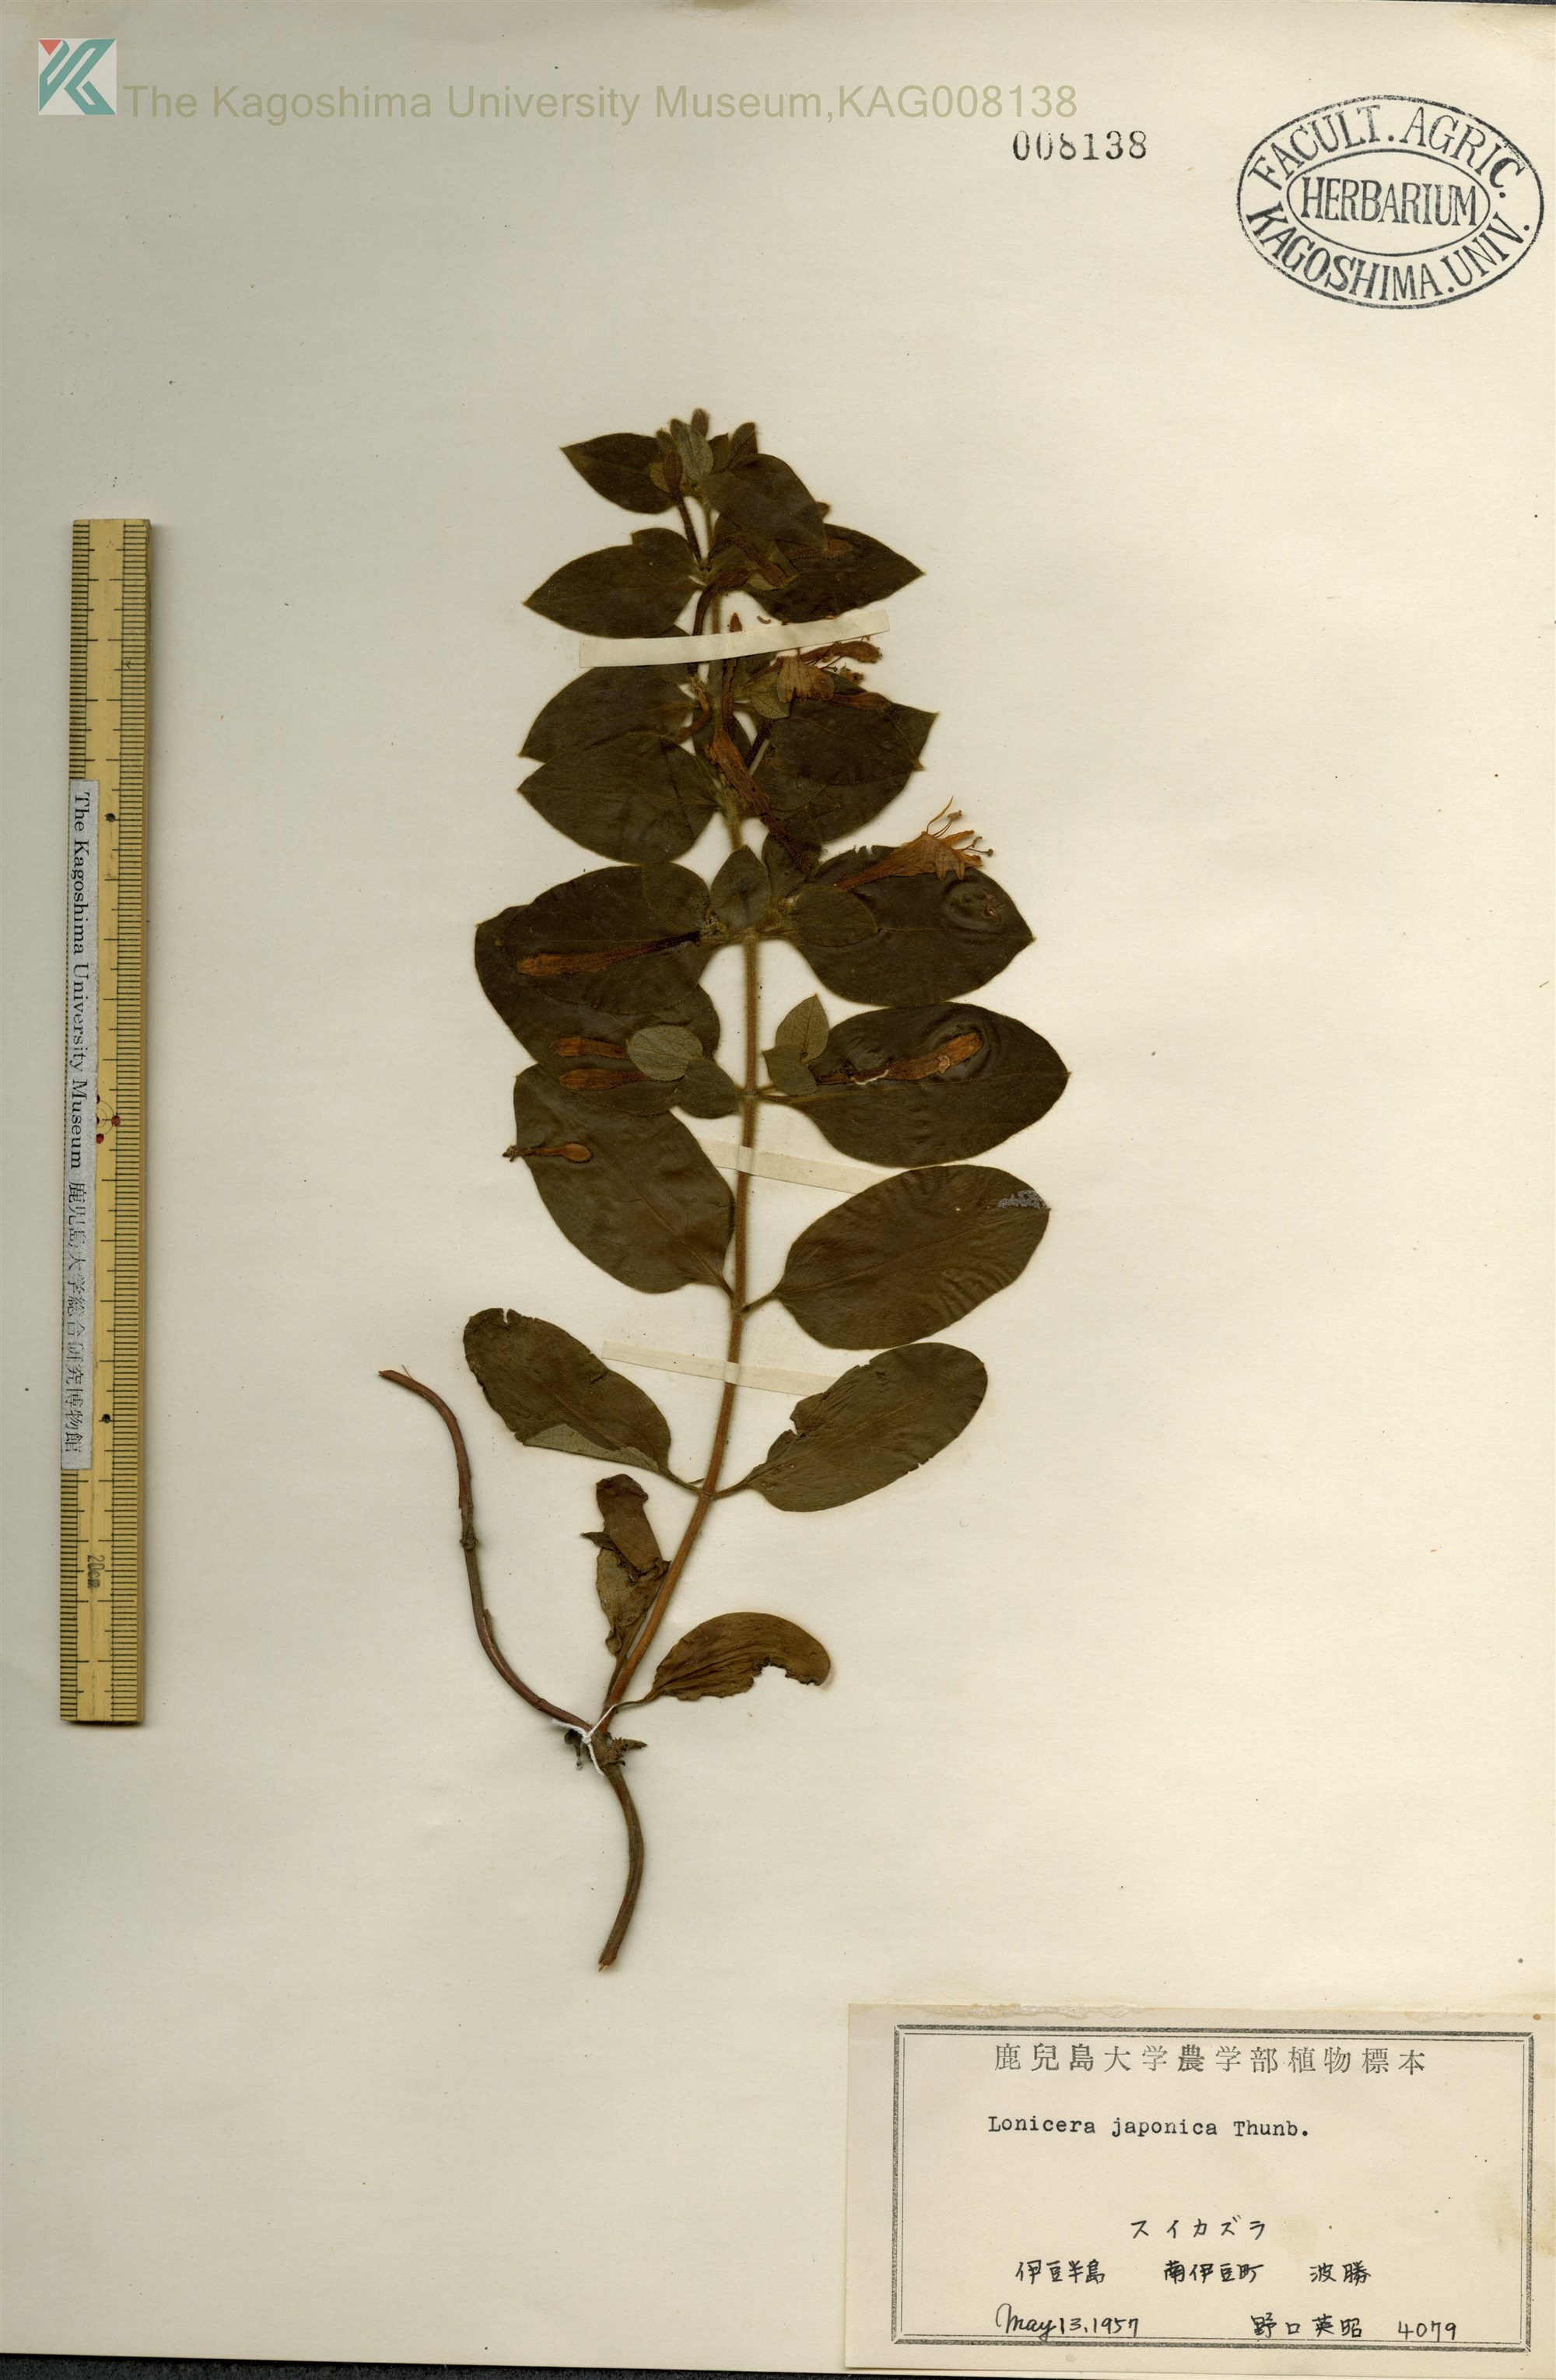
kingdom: Plantae
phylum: Tracheophyta
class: Magnoliopsida
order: Dipsacales
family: Caprifoliaceae
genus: Lonicera
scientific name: Lonicera japonica
